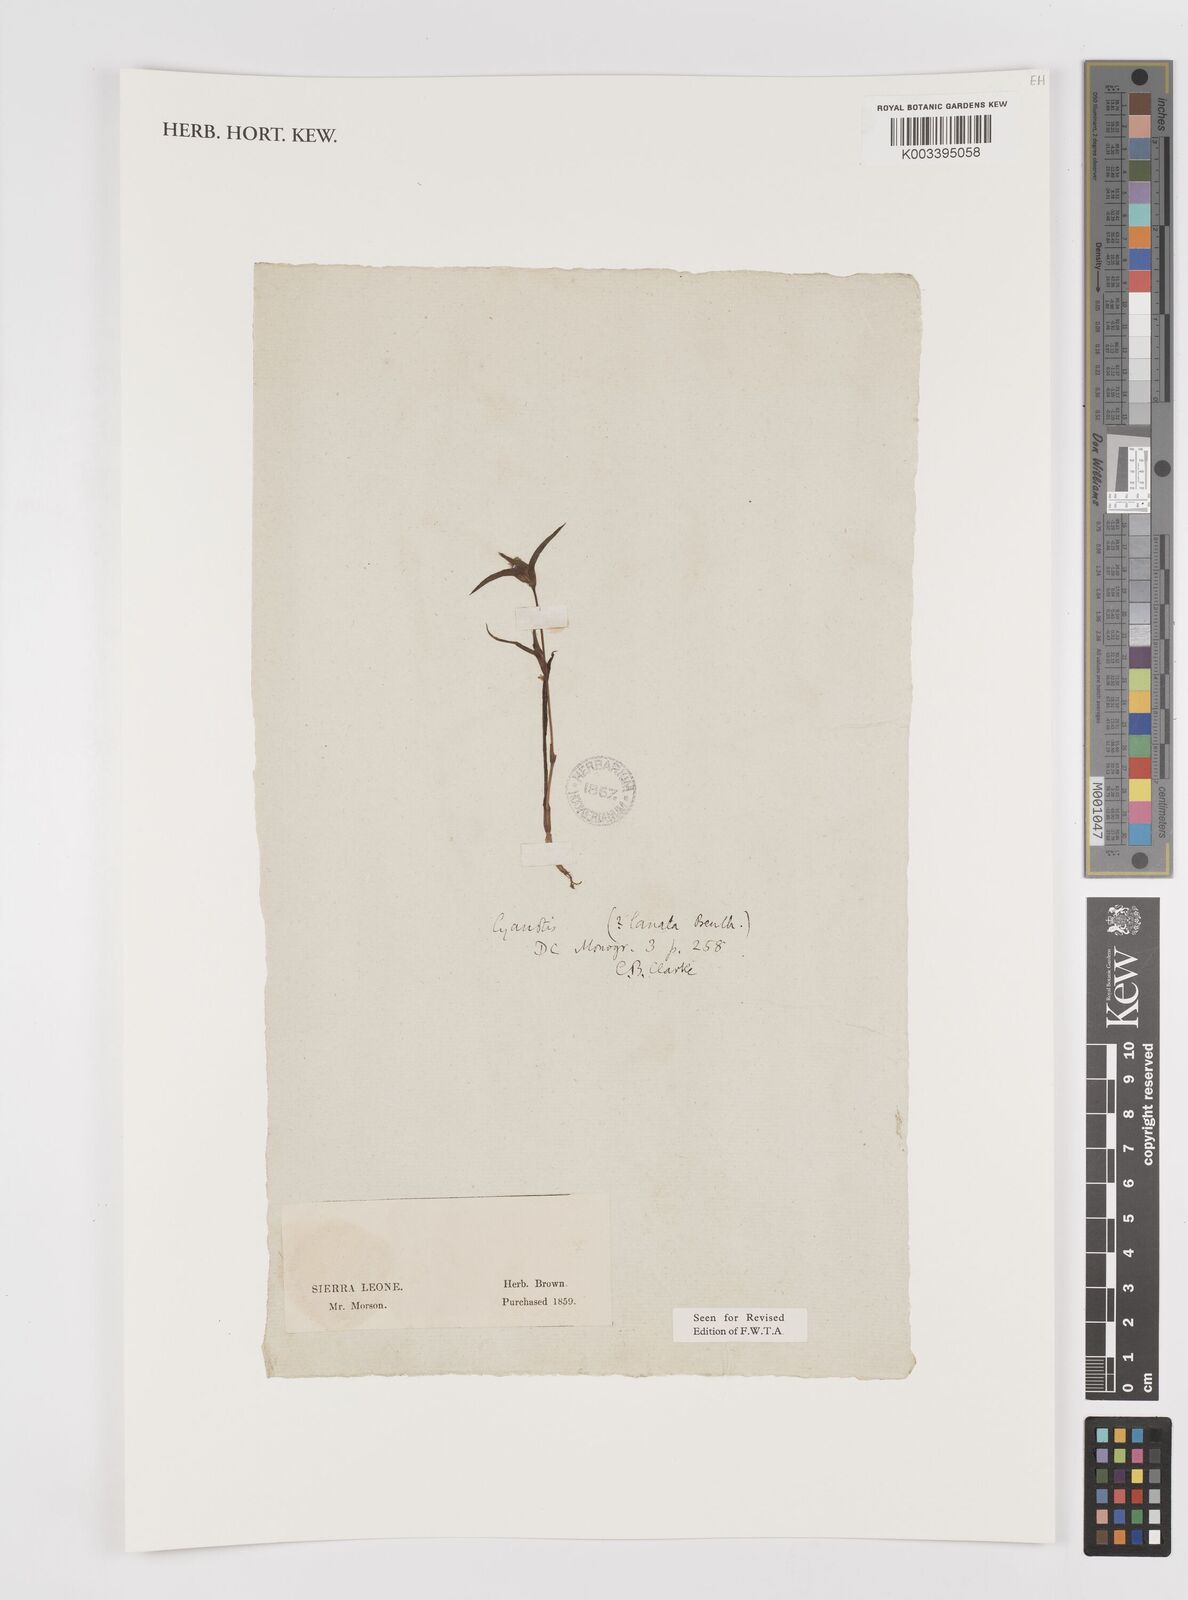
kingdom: Plantae
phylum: Tracheophyta
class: Liliopsida
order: Commelinales
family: Commelinaceae
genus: Cyanotis
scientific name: Cyanotis lanata
